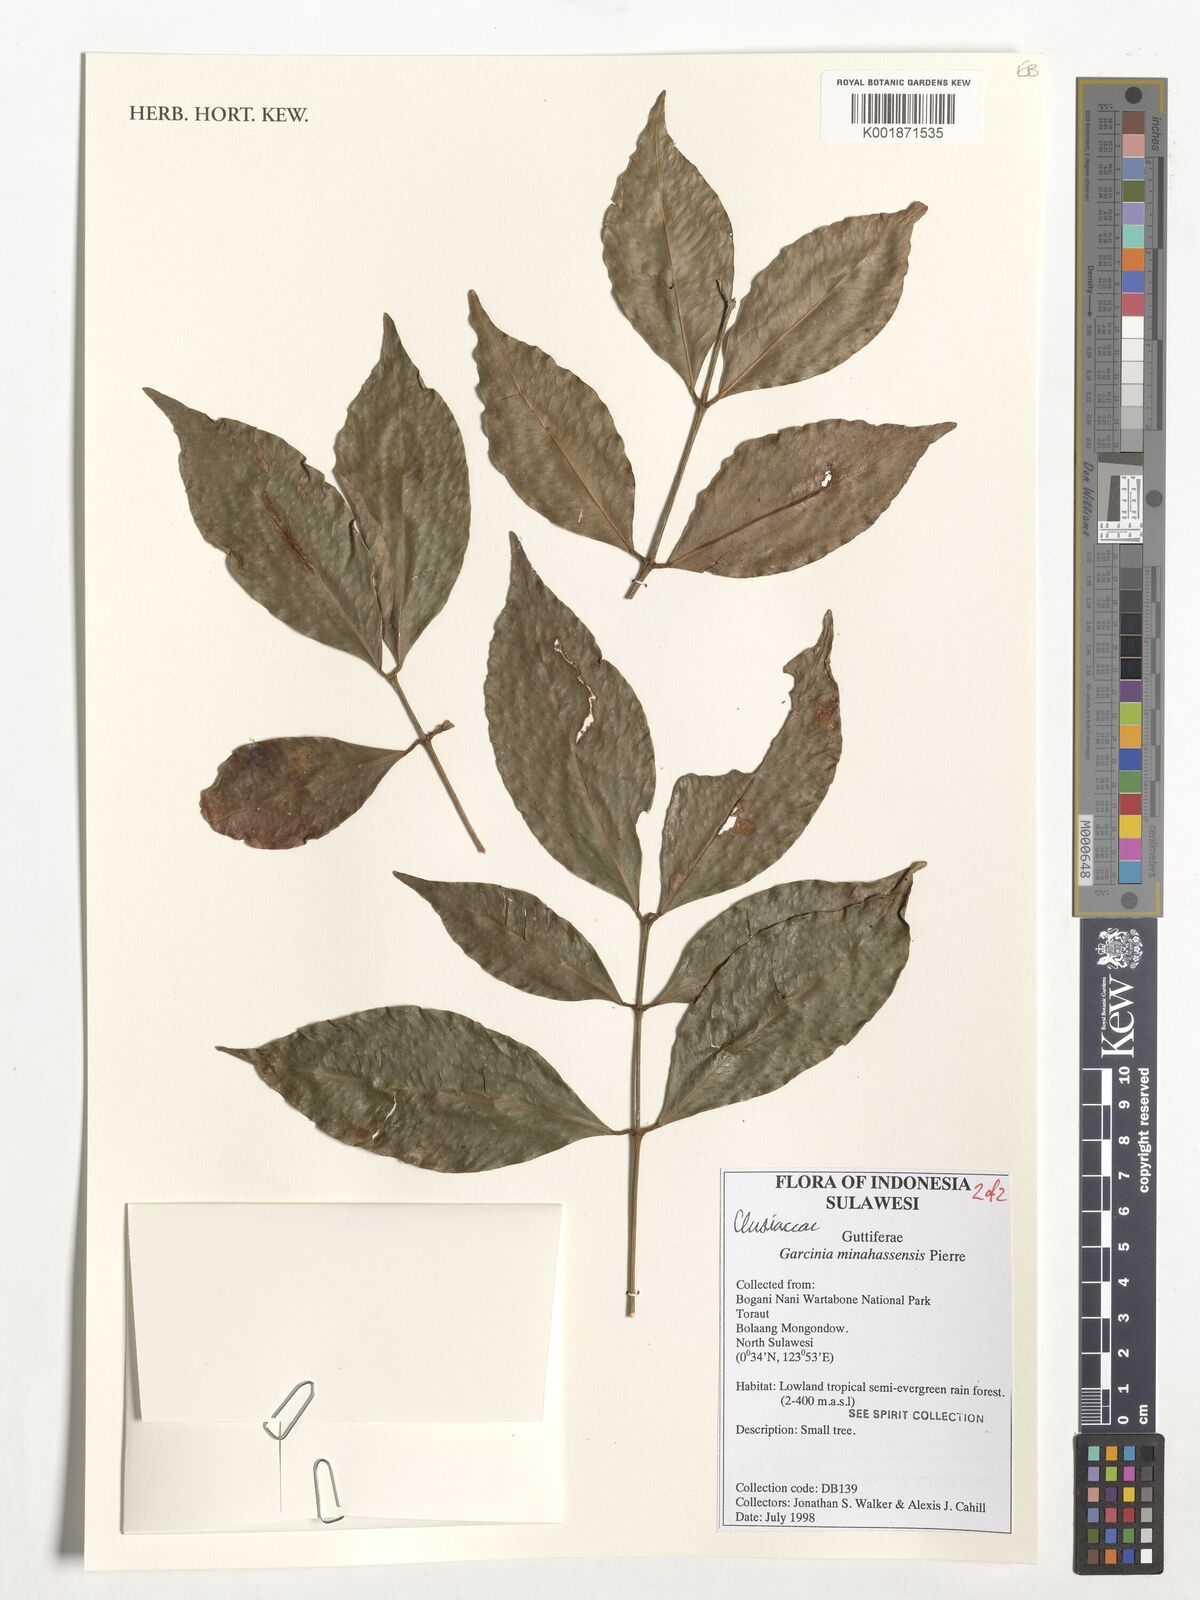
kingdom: Plantae
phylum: Tracheophyta
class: Magnoliopsida
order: Malpighiales
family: Clusiaceae
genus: Garcinia
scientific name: Garcinia minahassensis
